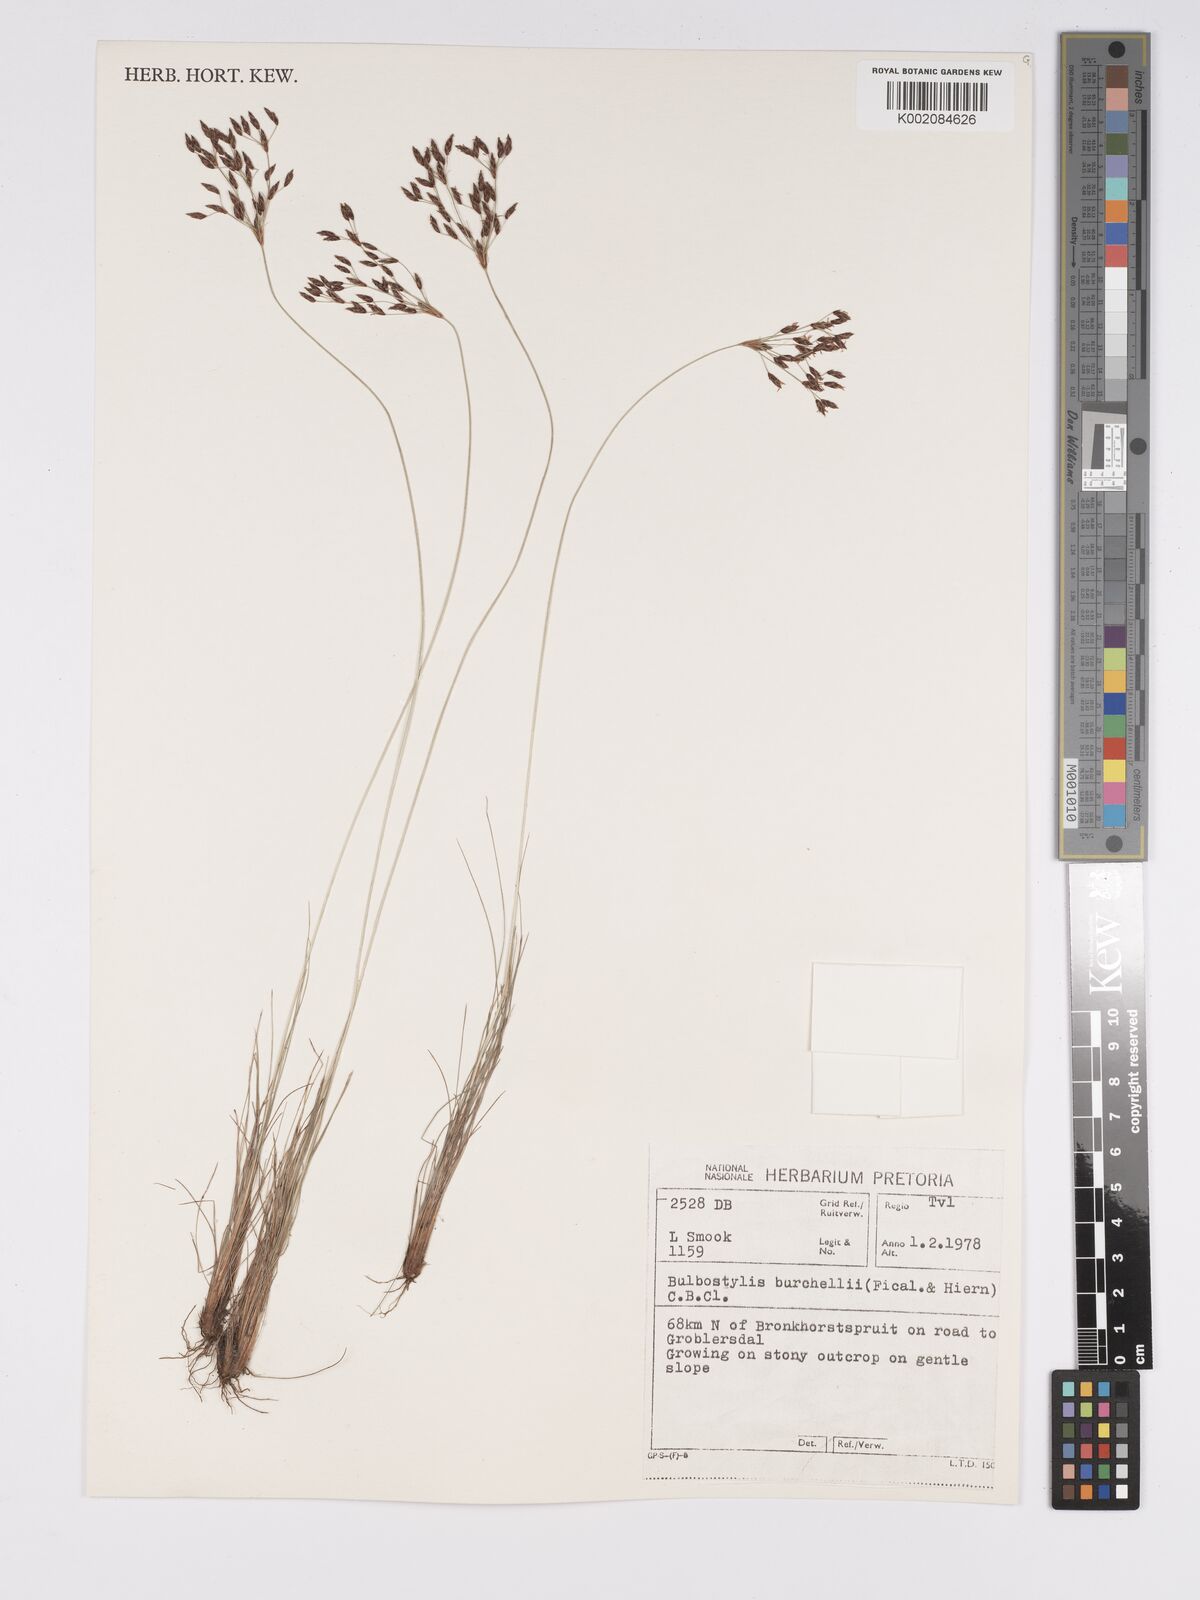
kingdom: Plantae
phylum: Tracheophyta
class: Liliopsida
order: Poales
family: Cyperaceae
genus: Bulbostylis
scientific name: Bulbostylis
